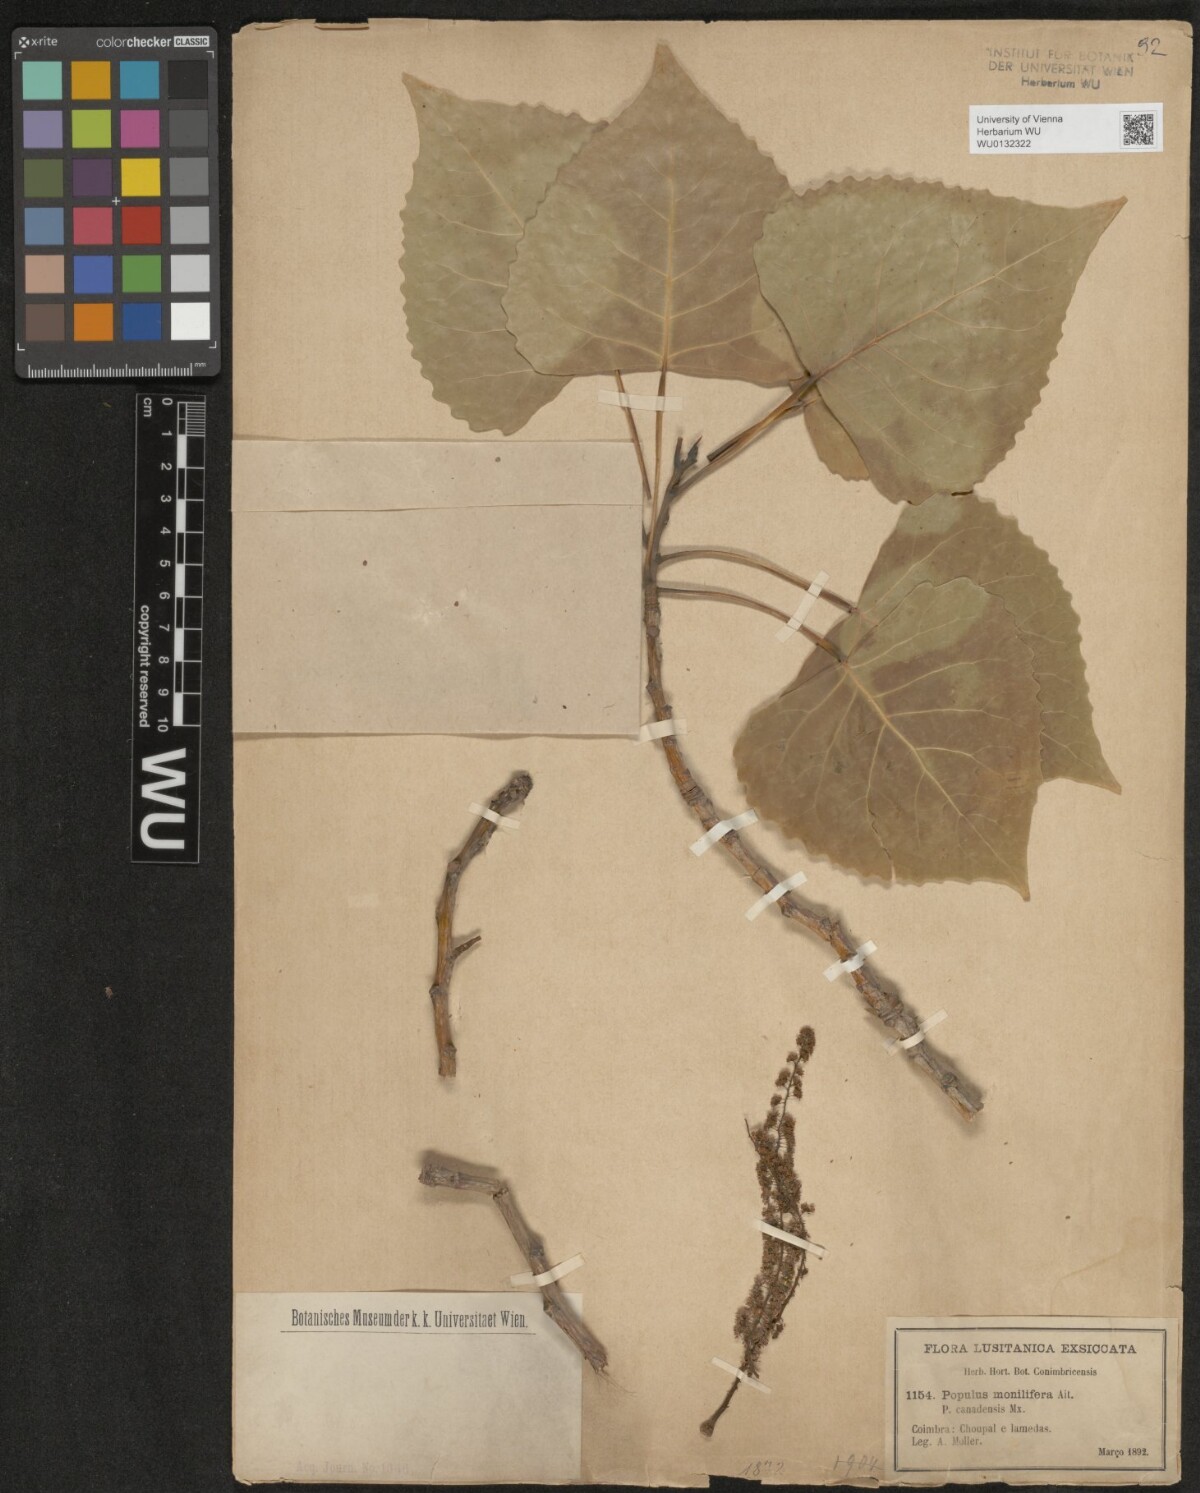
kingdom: Plantae
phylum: Tracheophyta
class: Magnoliopsida
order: Malpighiales
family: Salicaceae
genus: Populus
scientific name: Populus deltoides
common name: Eastern cottonwood
